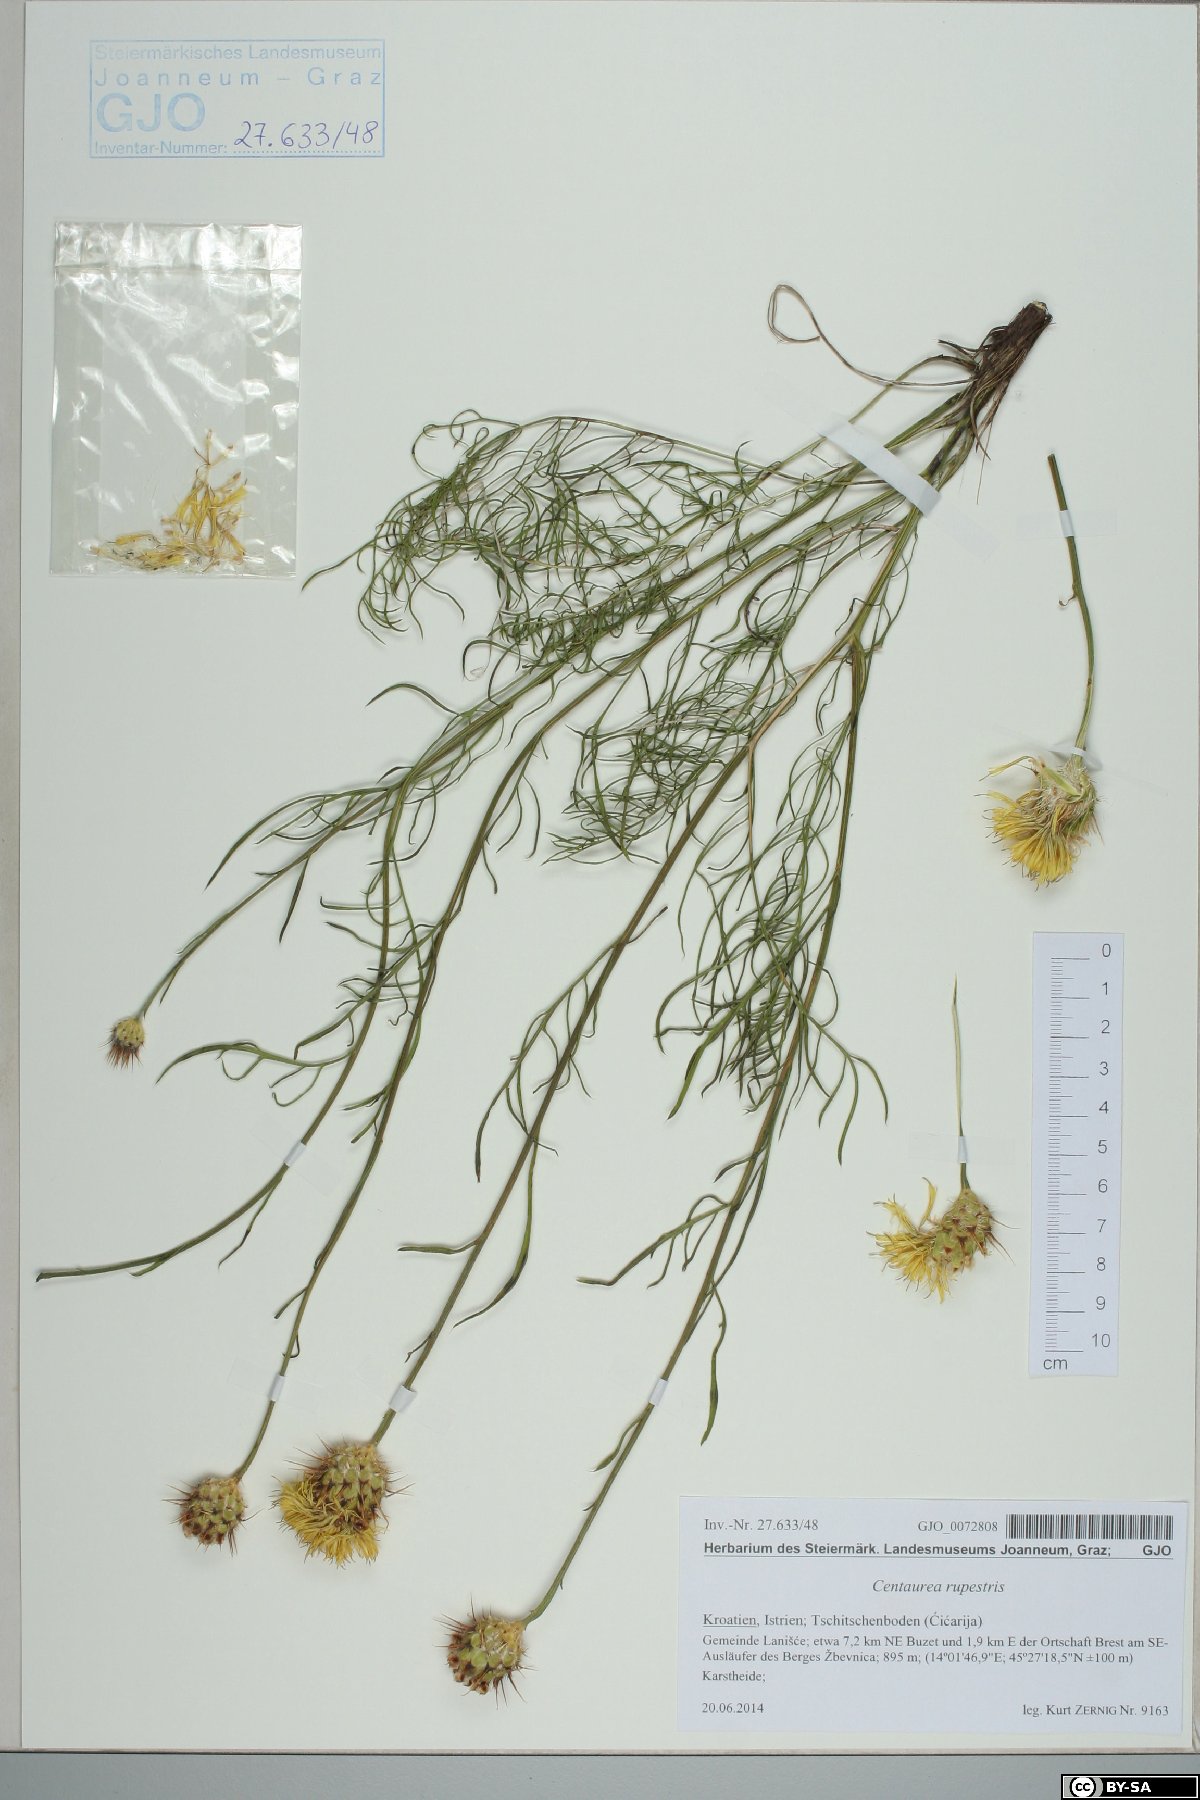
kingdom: Plantae
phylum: Tracheophyta
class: Magnoliopsida
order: Asterales
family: Asteraceae
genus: Centaurea
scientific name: Centaurea rupestris
